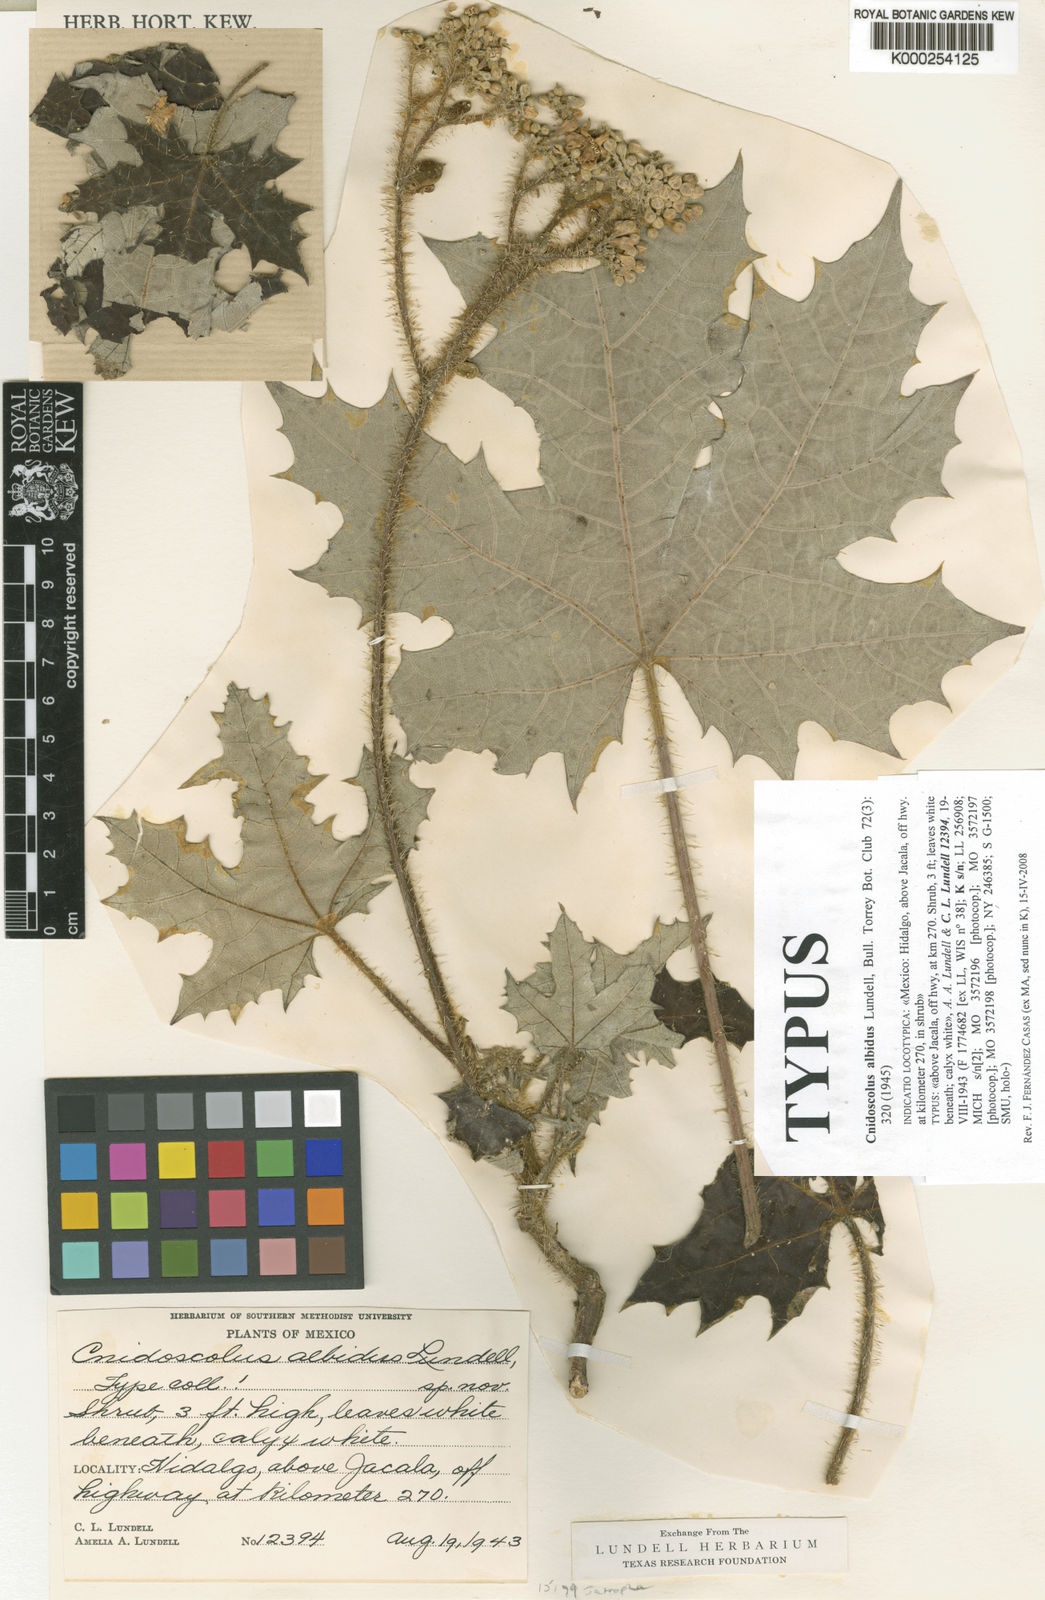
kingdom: Plantae
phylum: Tracheophyta
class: Magnoliopsida
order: Malpighiales
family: Euphorbiaceae
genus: Cnidoscolus
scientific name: Cnidoscolus albidus
